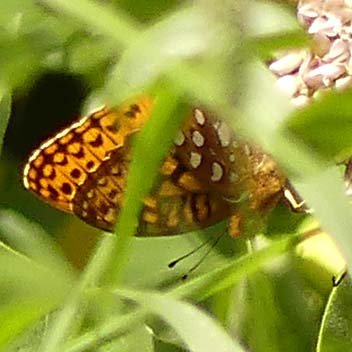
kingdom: Animalia
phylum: Arthropoda
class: Insecta
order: Lepidoptera
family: Nymphalidae
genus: Speyeria
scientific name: Speyeria
